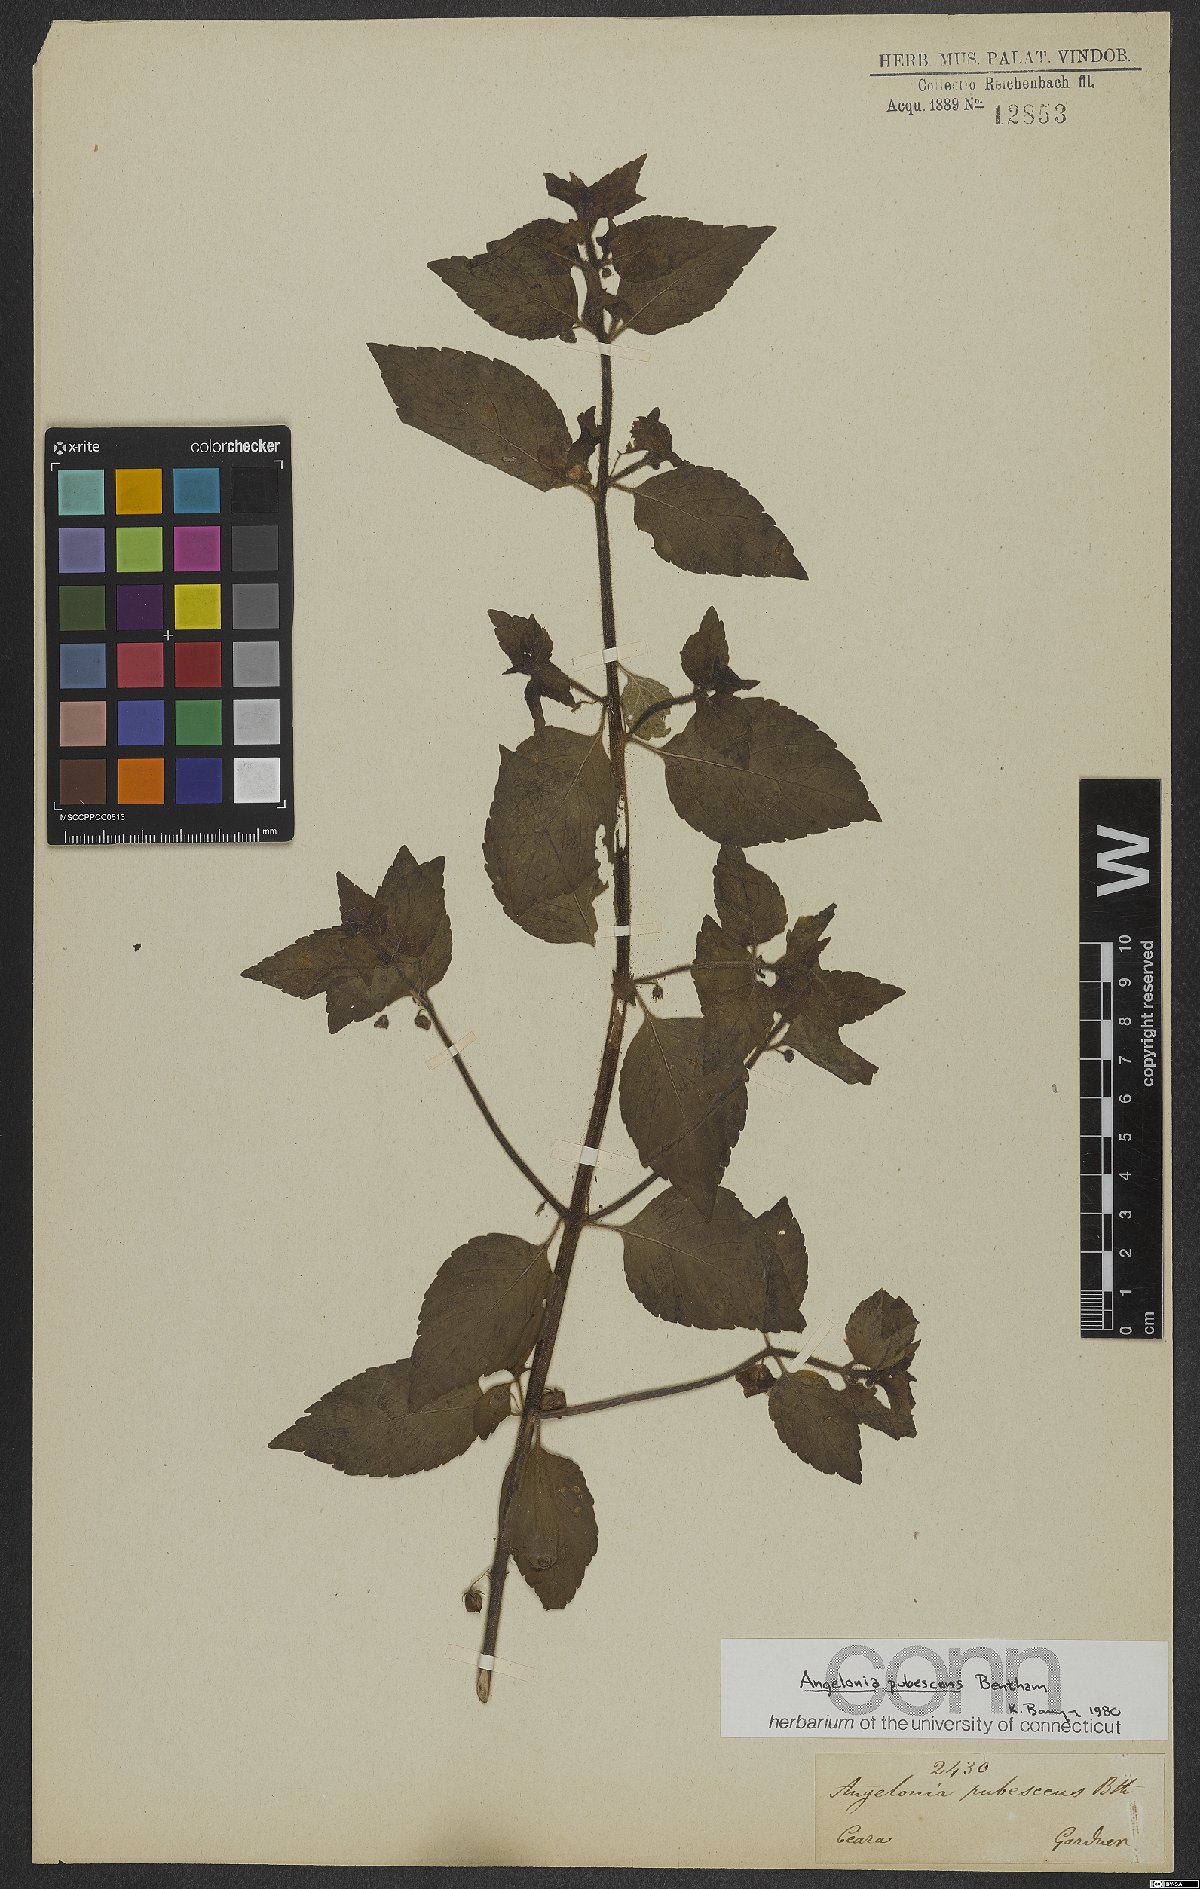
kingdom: Plantae
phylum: Tracheophyta
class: Magnoliopsida
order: Lamiales
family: Plantaginaceae
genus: Angelonia
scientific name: Angelonia pubescens
